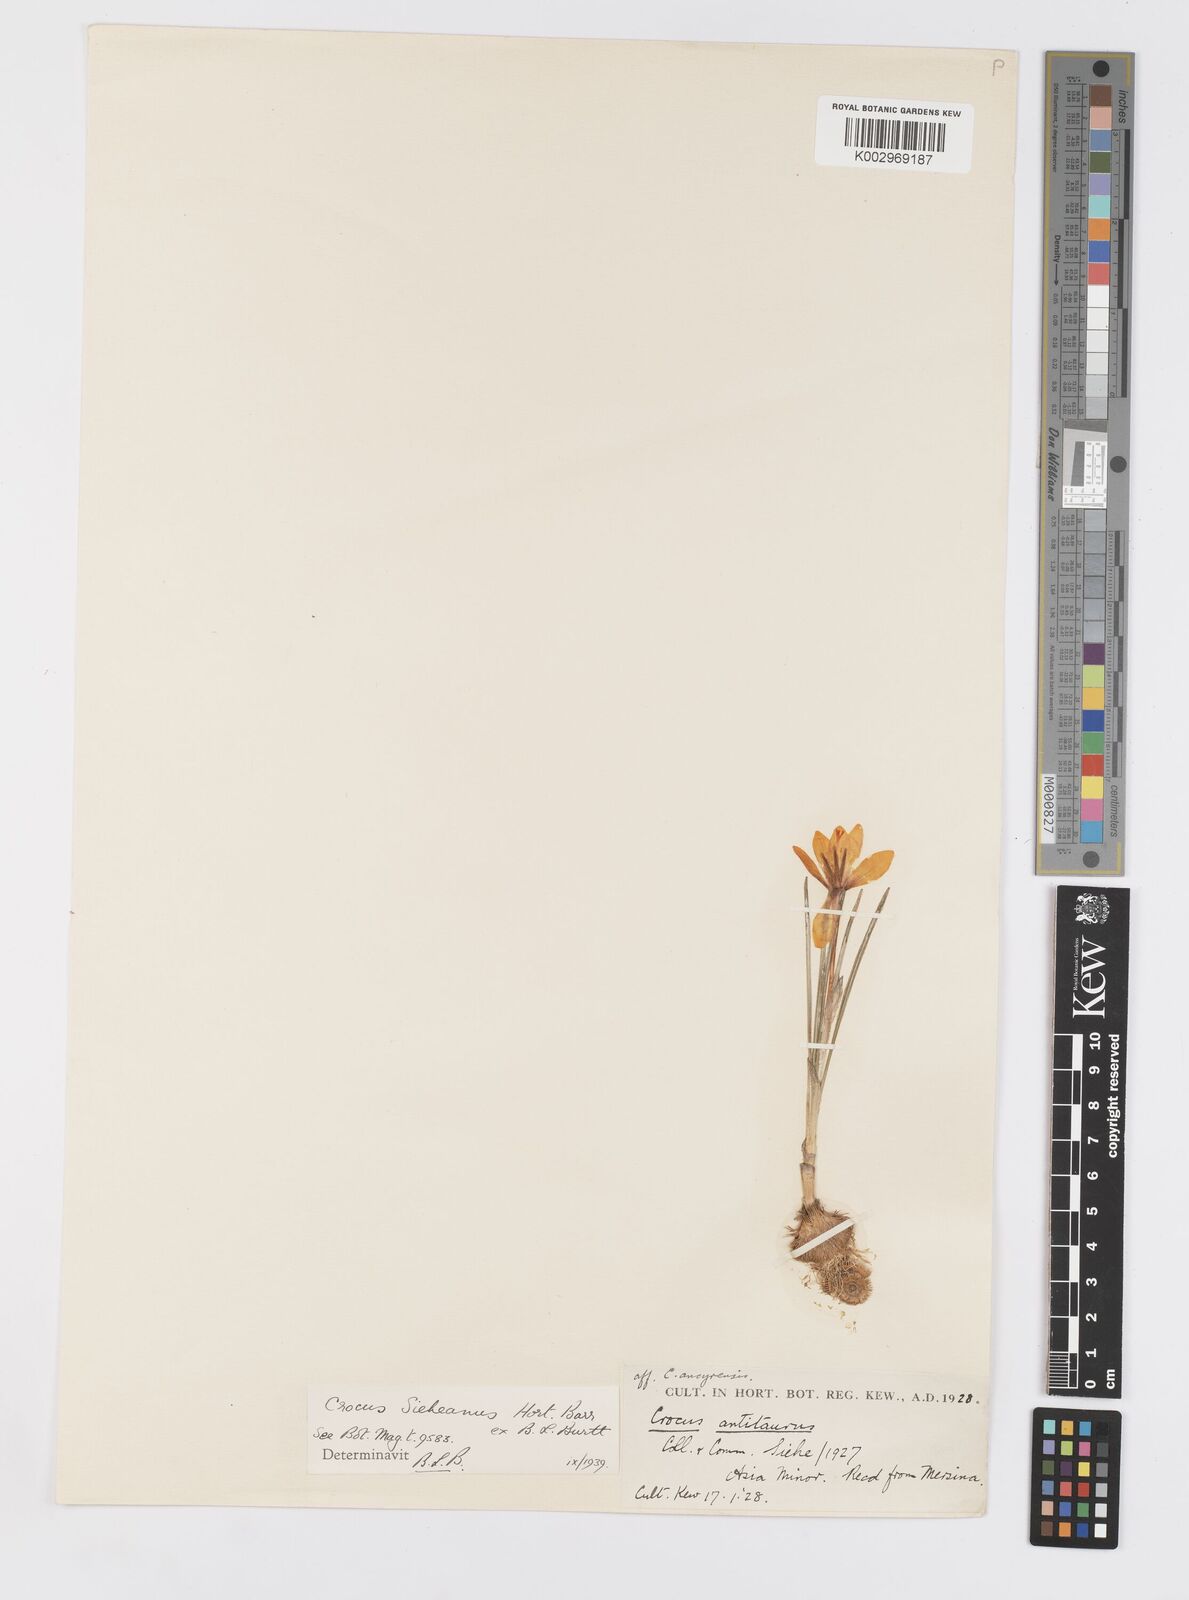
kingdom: Plantae
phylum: Tracheophyta
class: Liliopsida
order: Asparagales
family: Iridaceae
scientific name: Iridaceae
